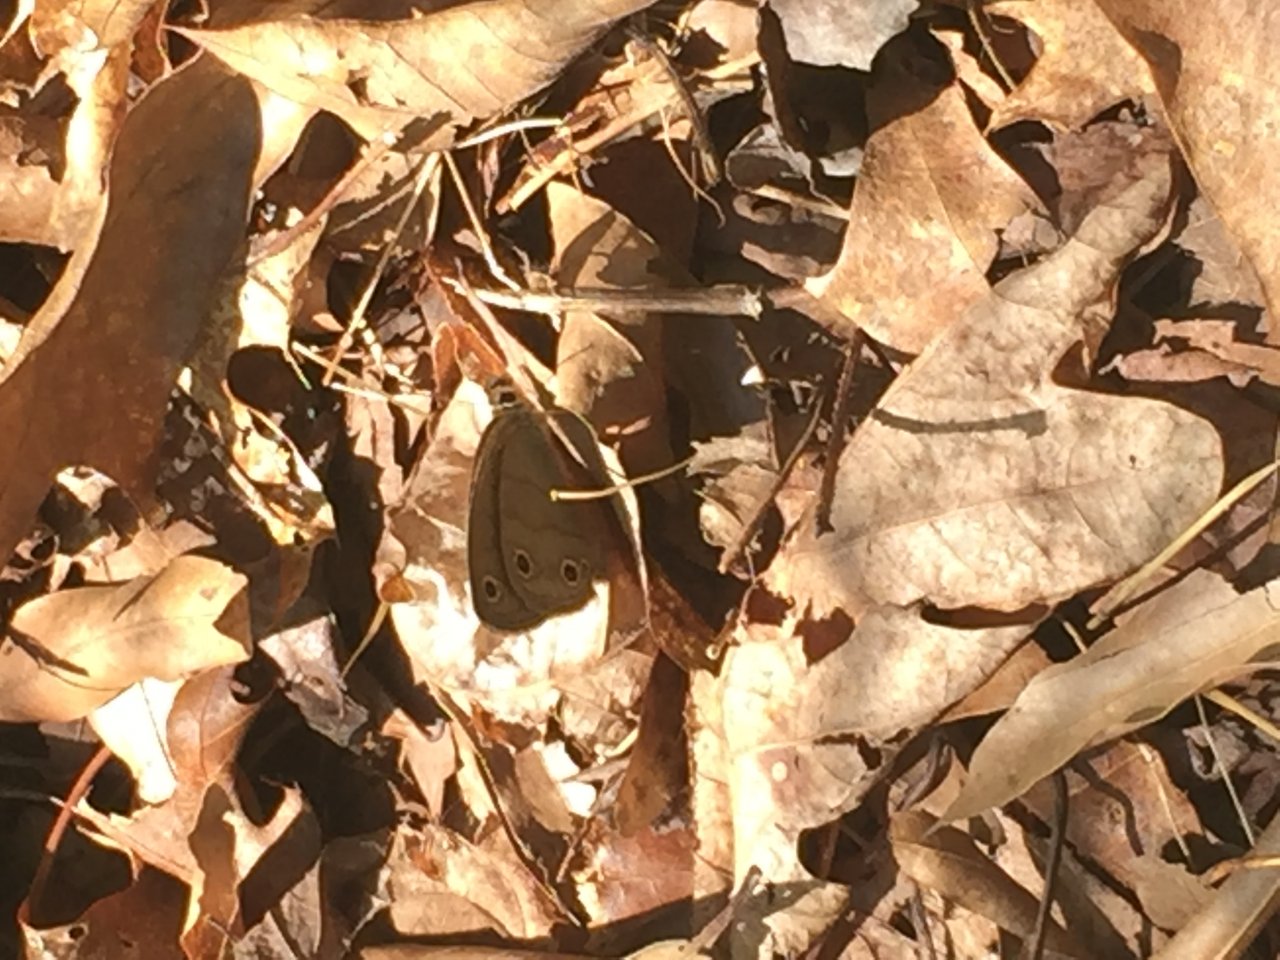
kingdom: Animalia
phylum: Arthropoda
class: Insecta
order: Lepidoptera
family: Nymphalidae
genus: Euptychia
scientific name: Euptychia cymela
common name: Little Wood Satyr
